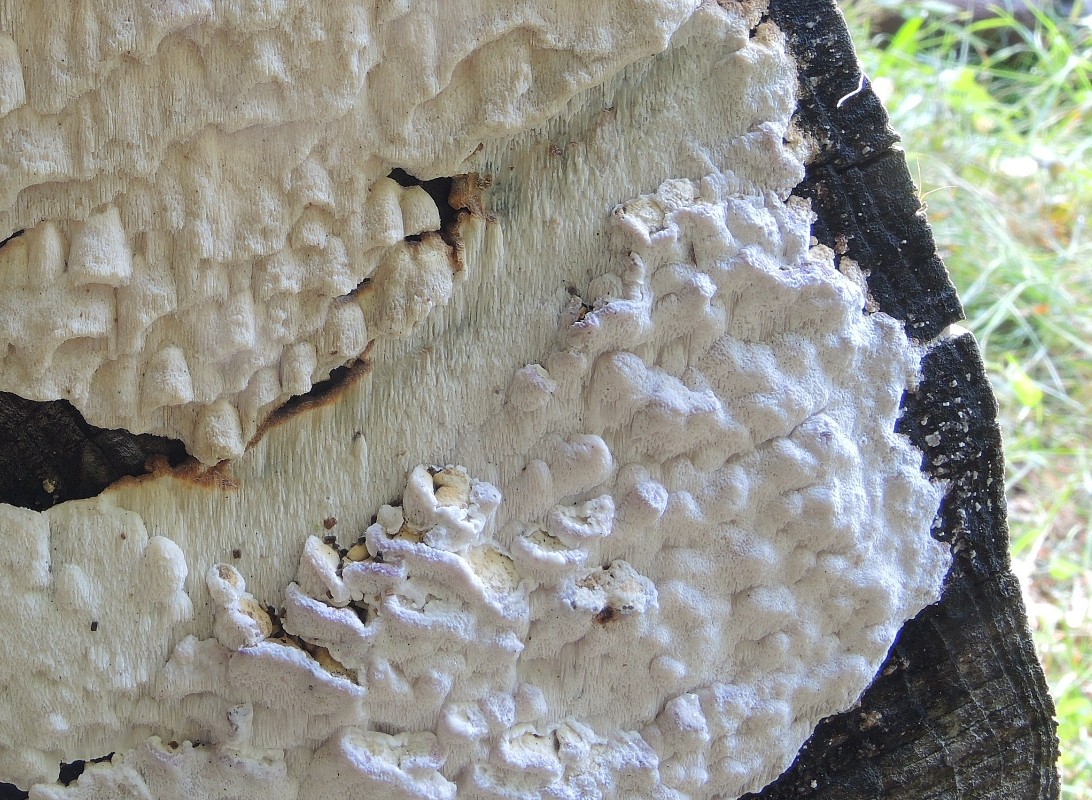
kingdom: Fungi
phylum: Basidiomycota
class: Agaricomycetes
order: Polyporales
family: Fomitopsidaceae
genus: Neoantrodia
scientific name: Neoantrodia serialis
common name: række-sejporesvamp
